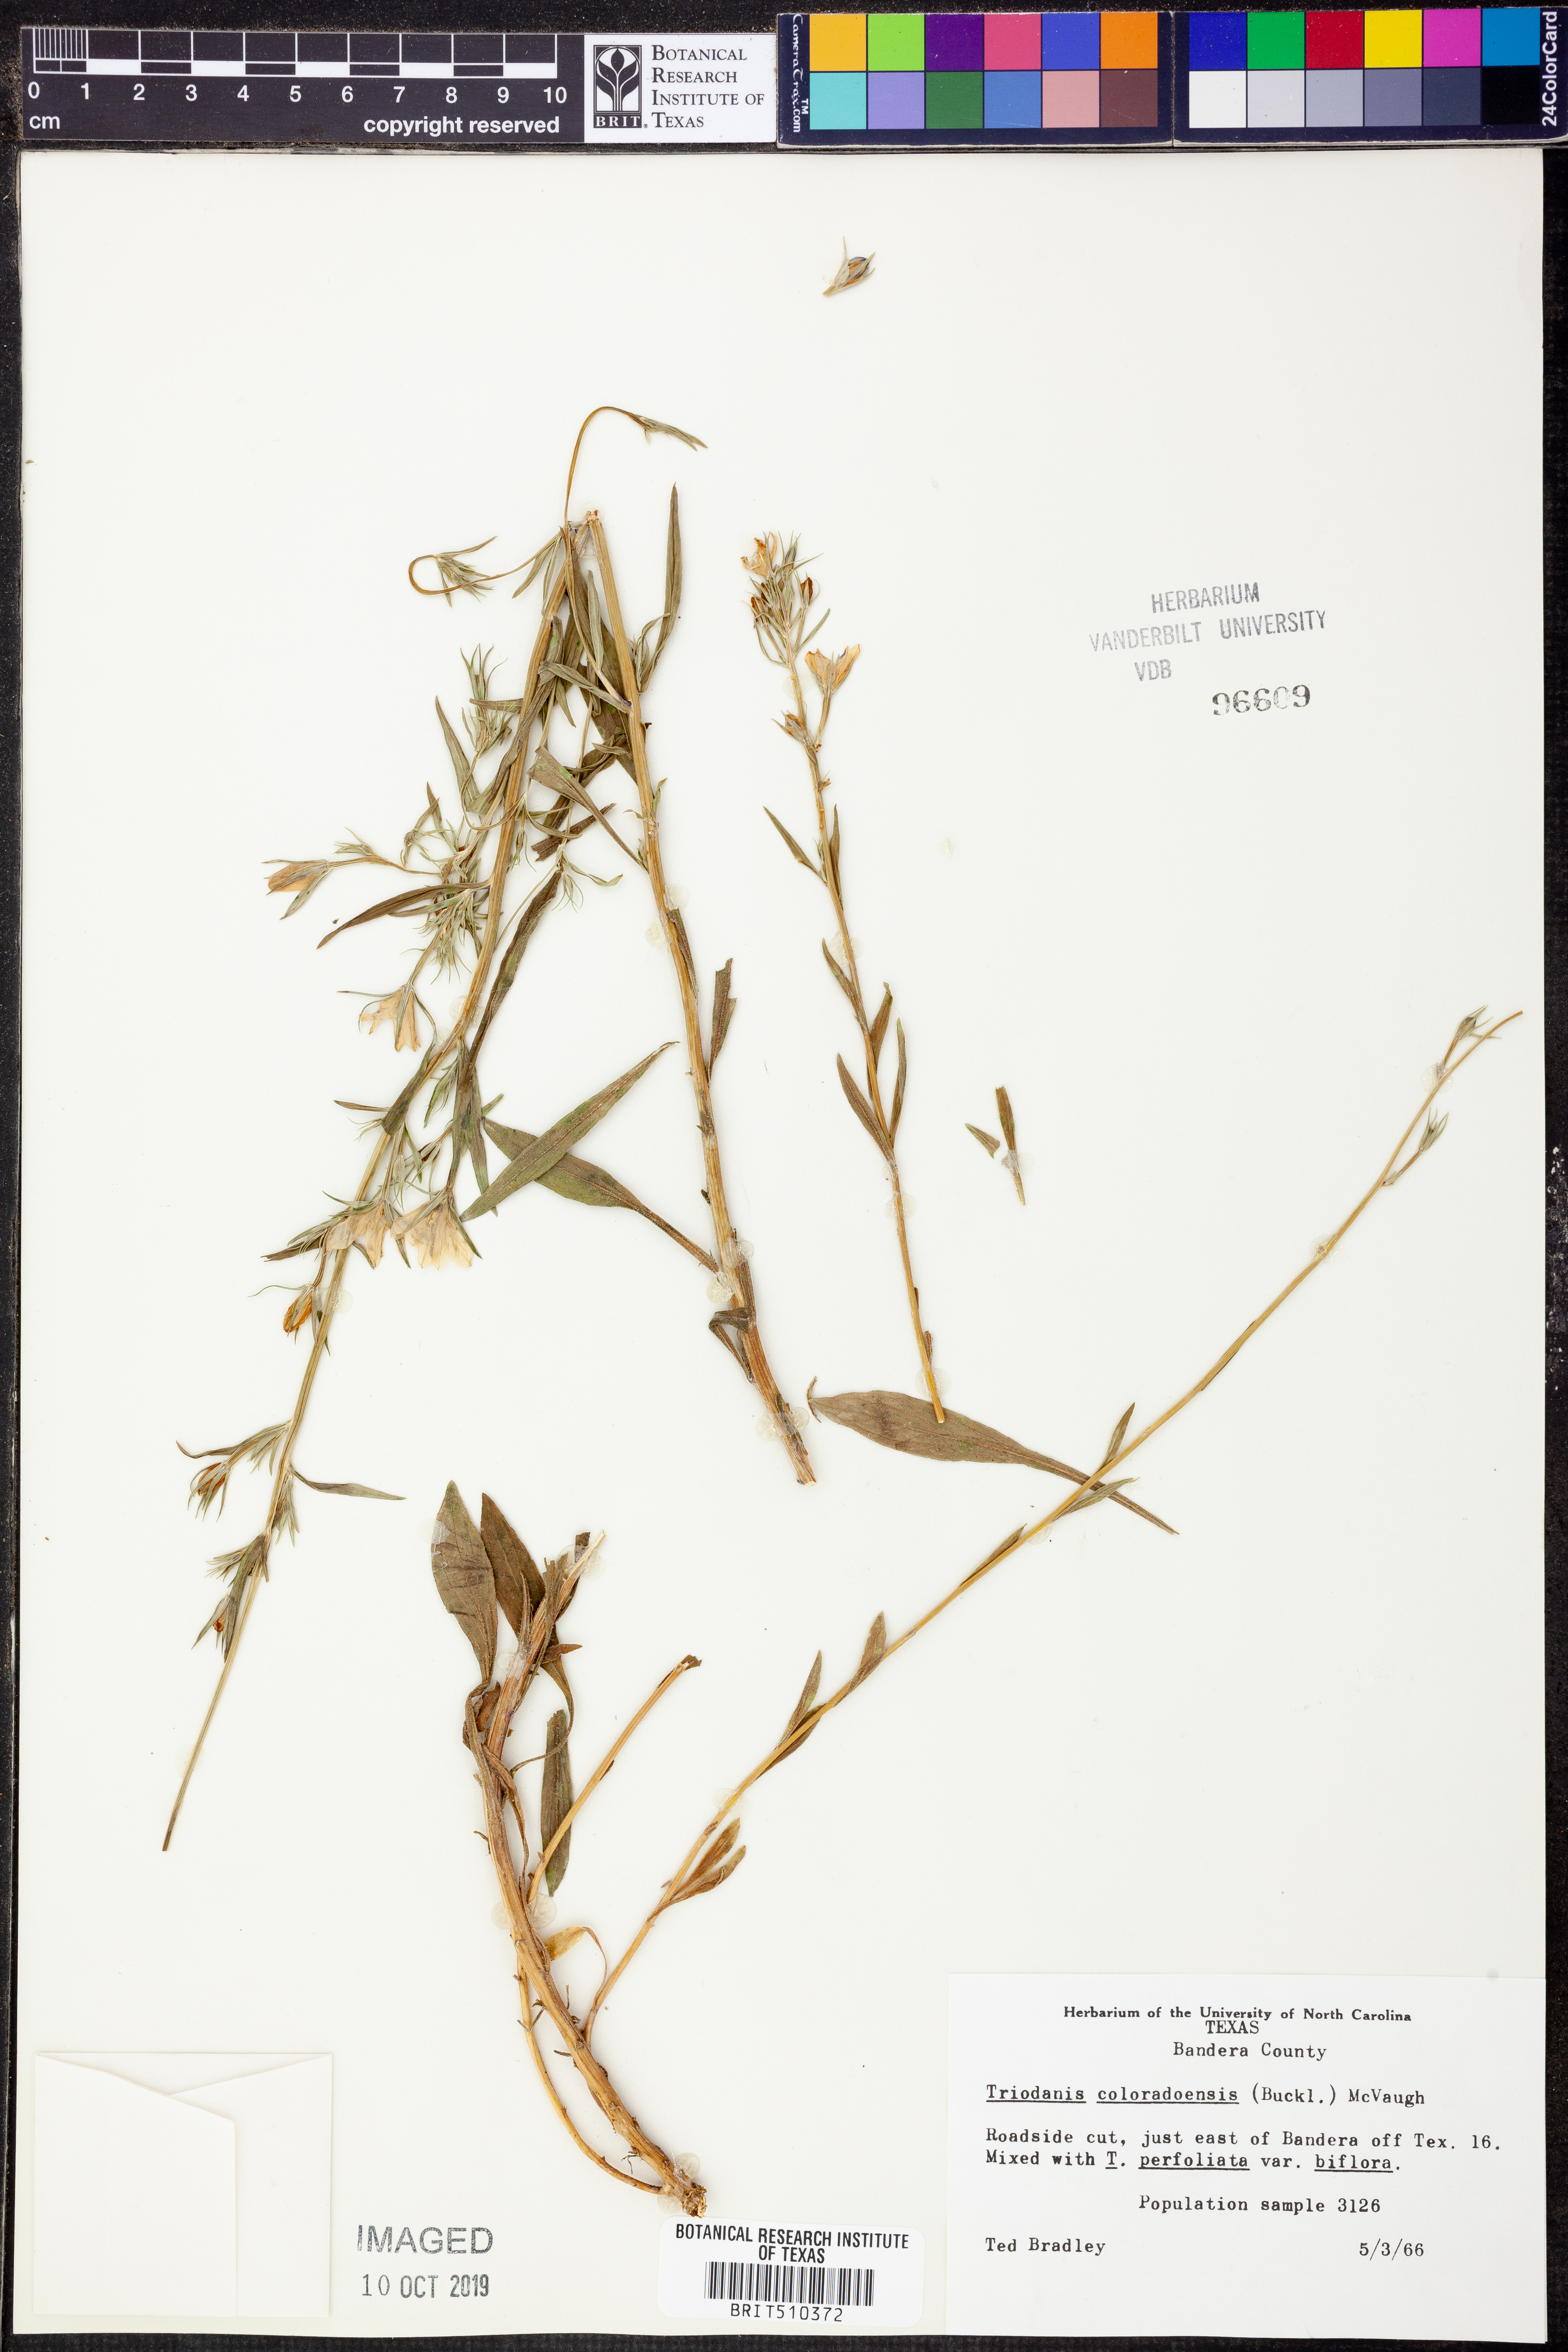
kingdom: Plantae
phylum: Tracheophyta
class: Magnoliopsida
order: Asterales
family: Campanulaceae
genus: Triodanis
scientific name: Triodanis coloradoensis
